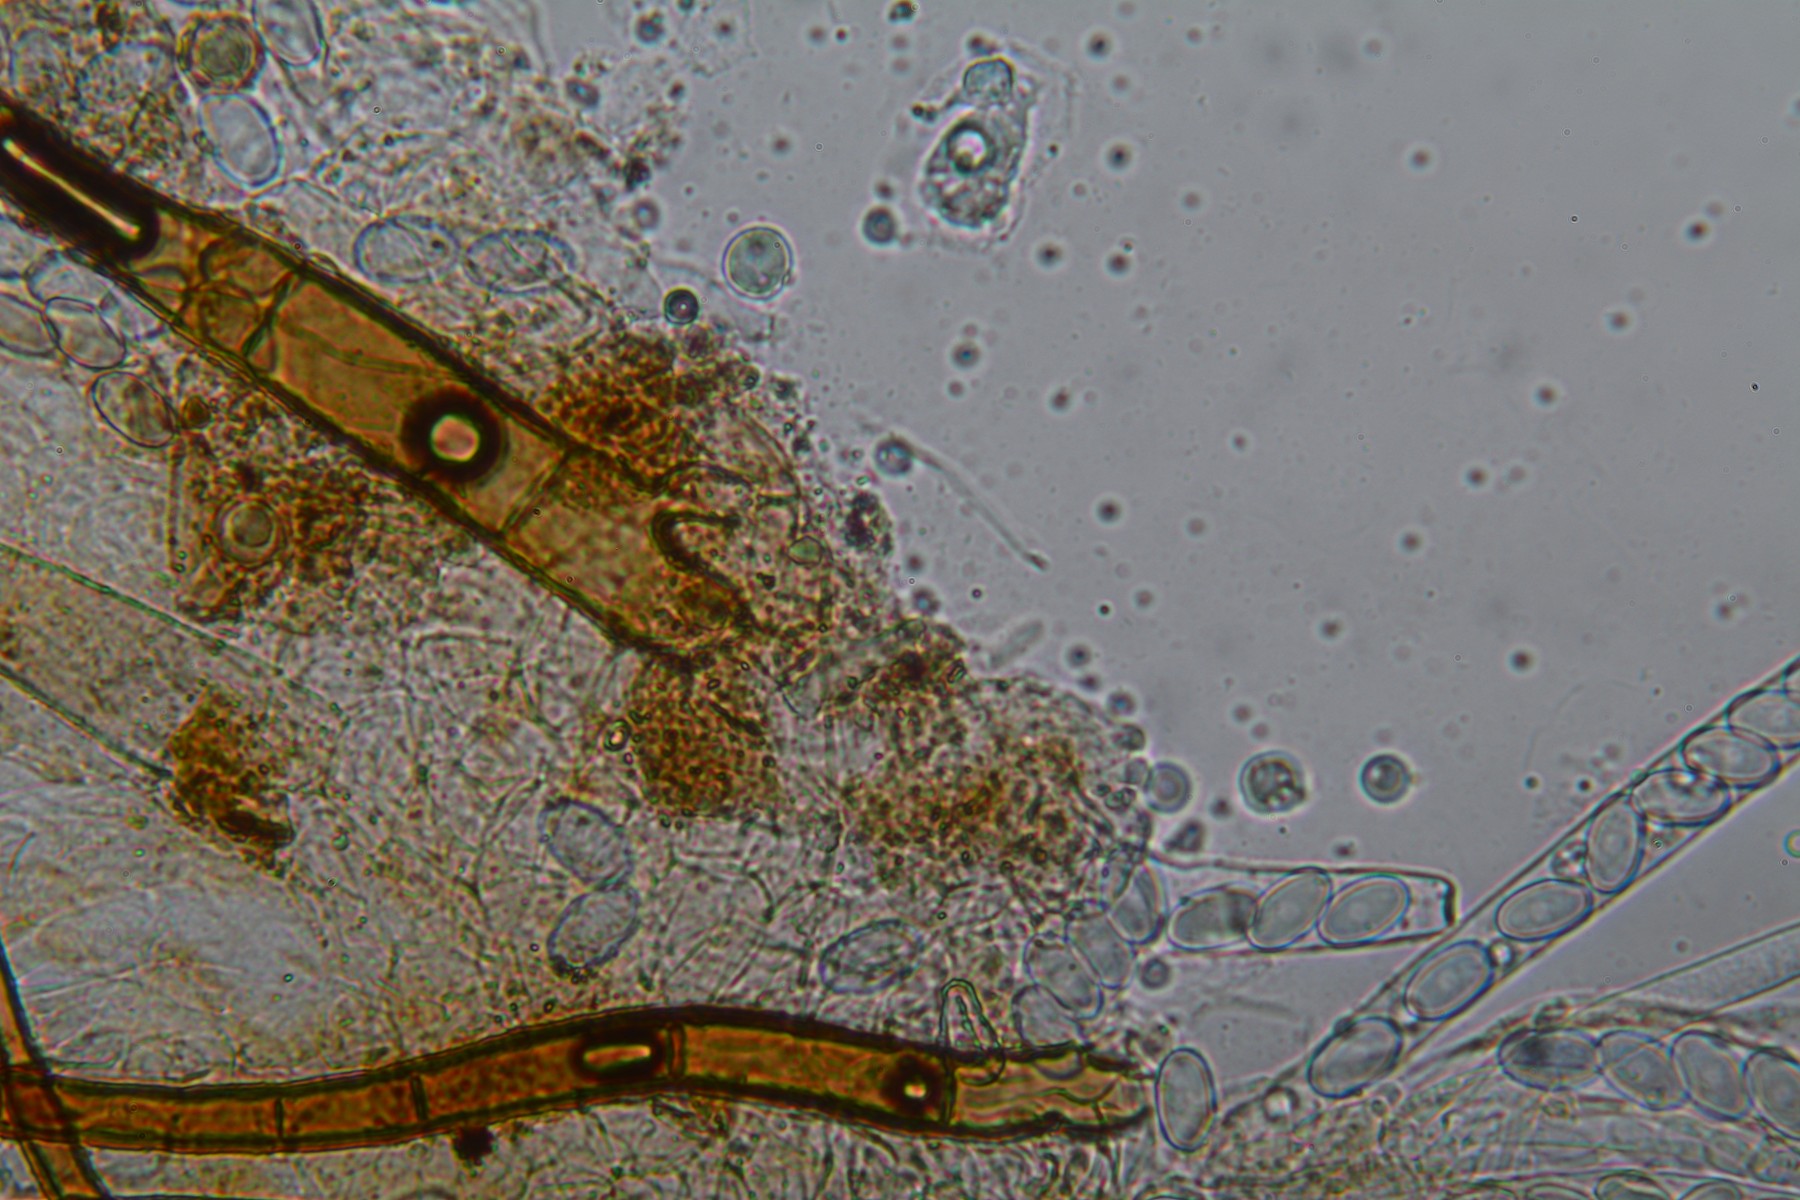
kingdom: Fungi
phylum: Ascomycota
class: Pezizomycetes
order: Pezizales
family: Pyronemataceae
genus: Cheilymenia
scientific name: Cheilymenia fimicola
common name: møg-hårbæger
